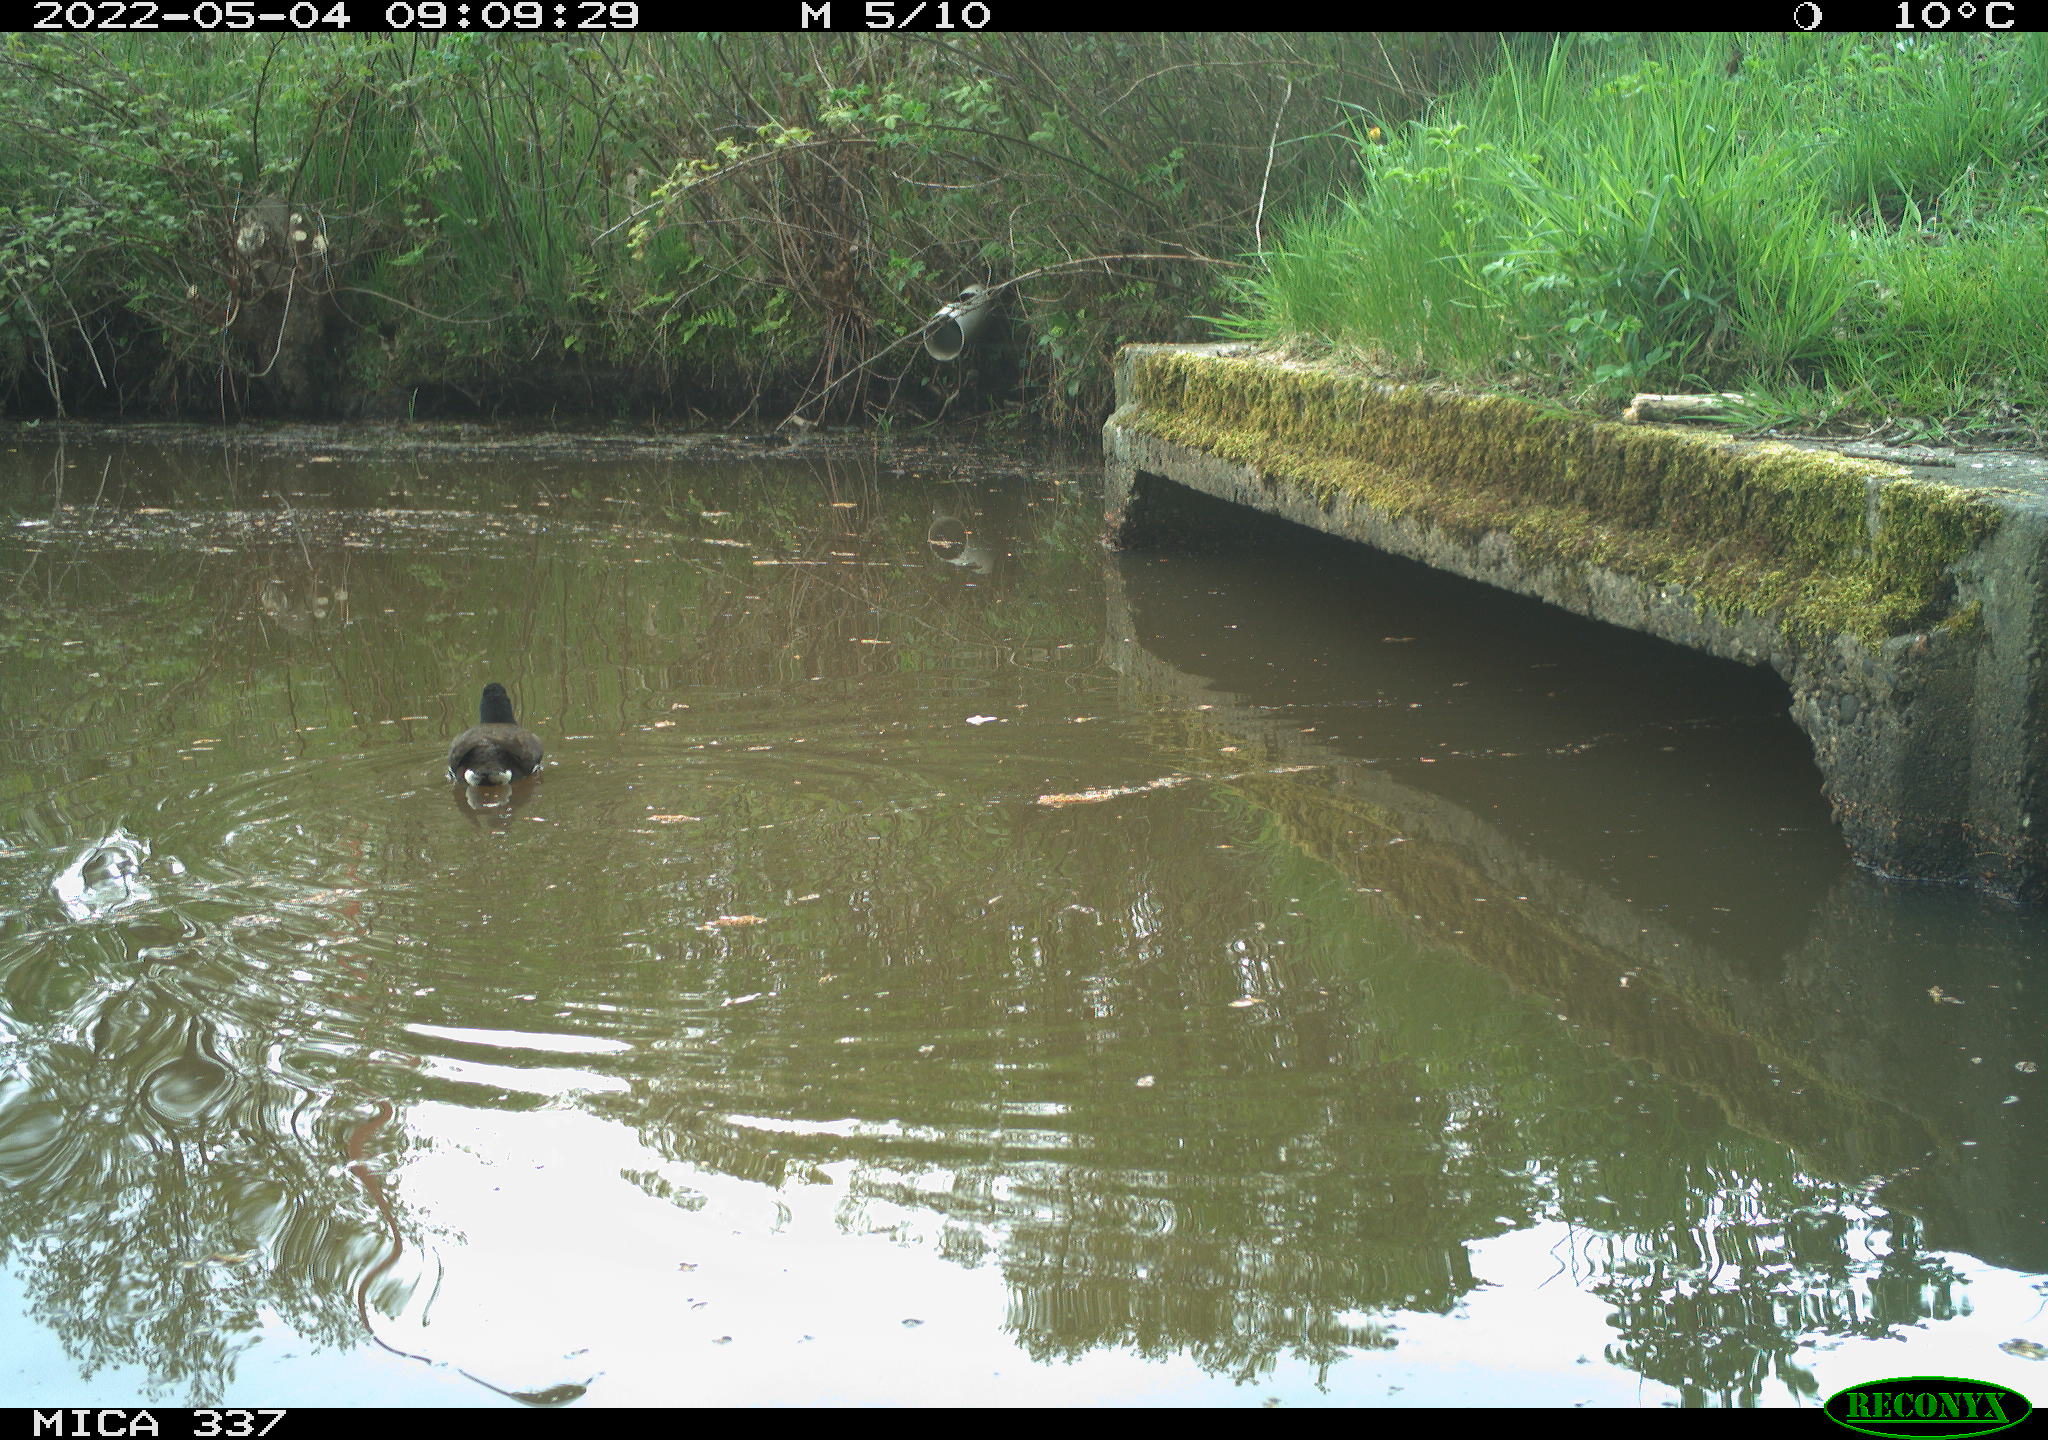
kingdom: Animalia
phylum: Chordata
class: Aves
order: Gruiformes
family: Rallidae
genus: Gallinula
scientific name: Gallinula chloropus
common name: Common moorhen
